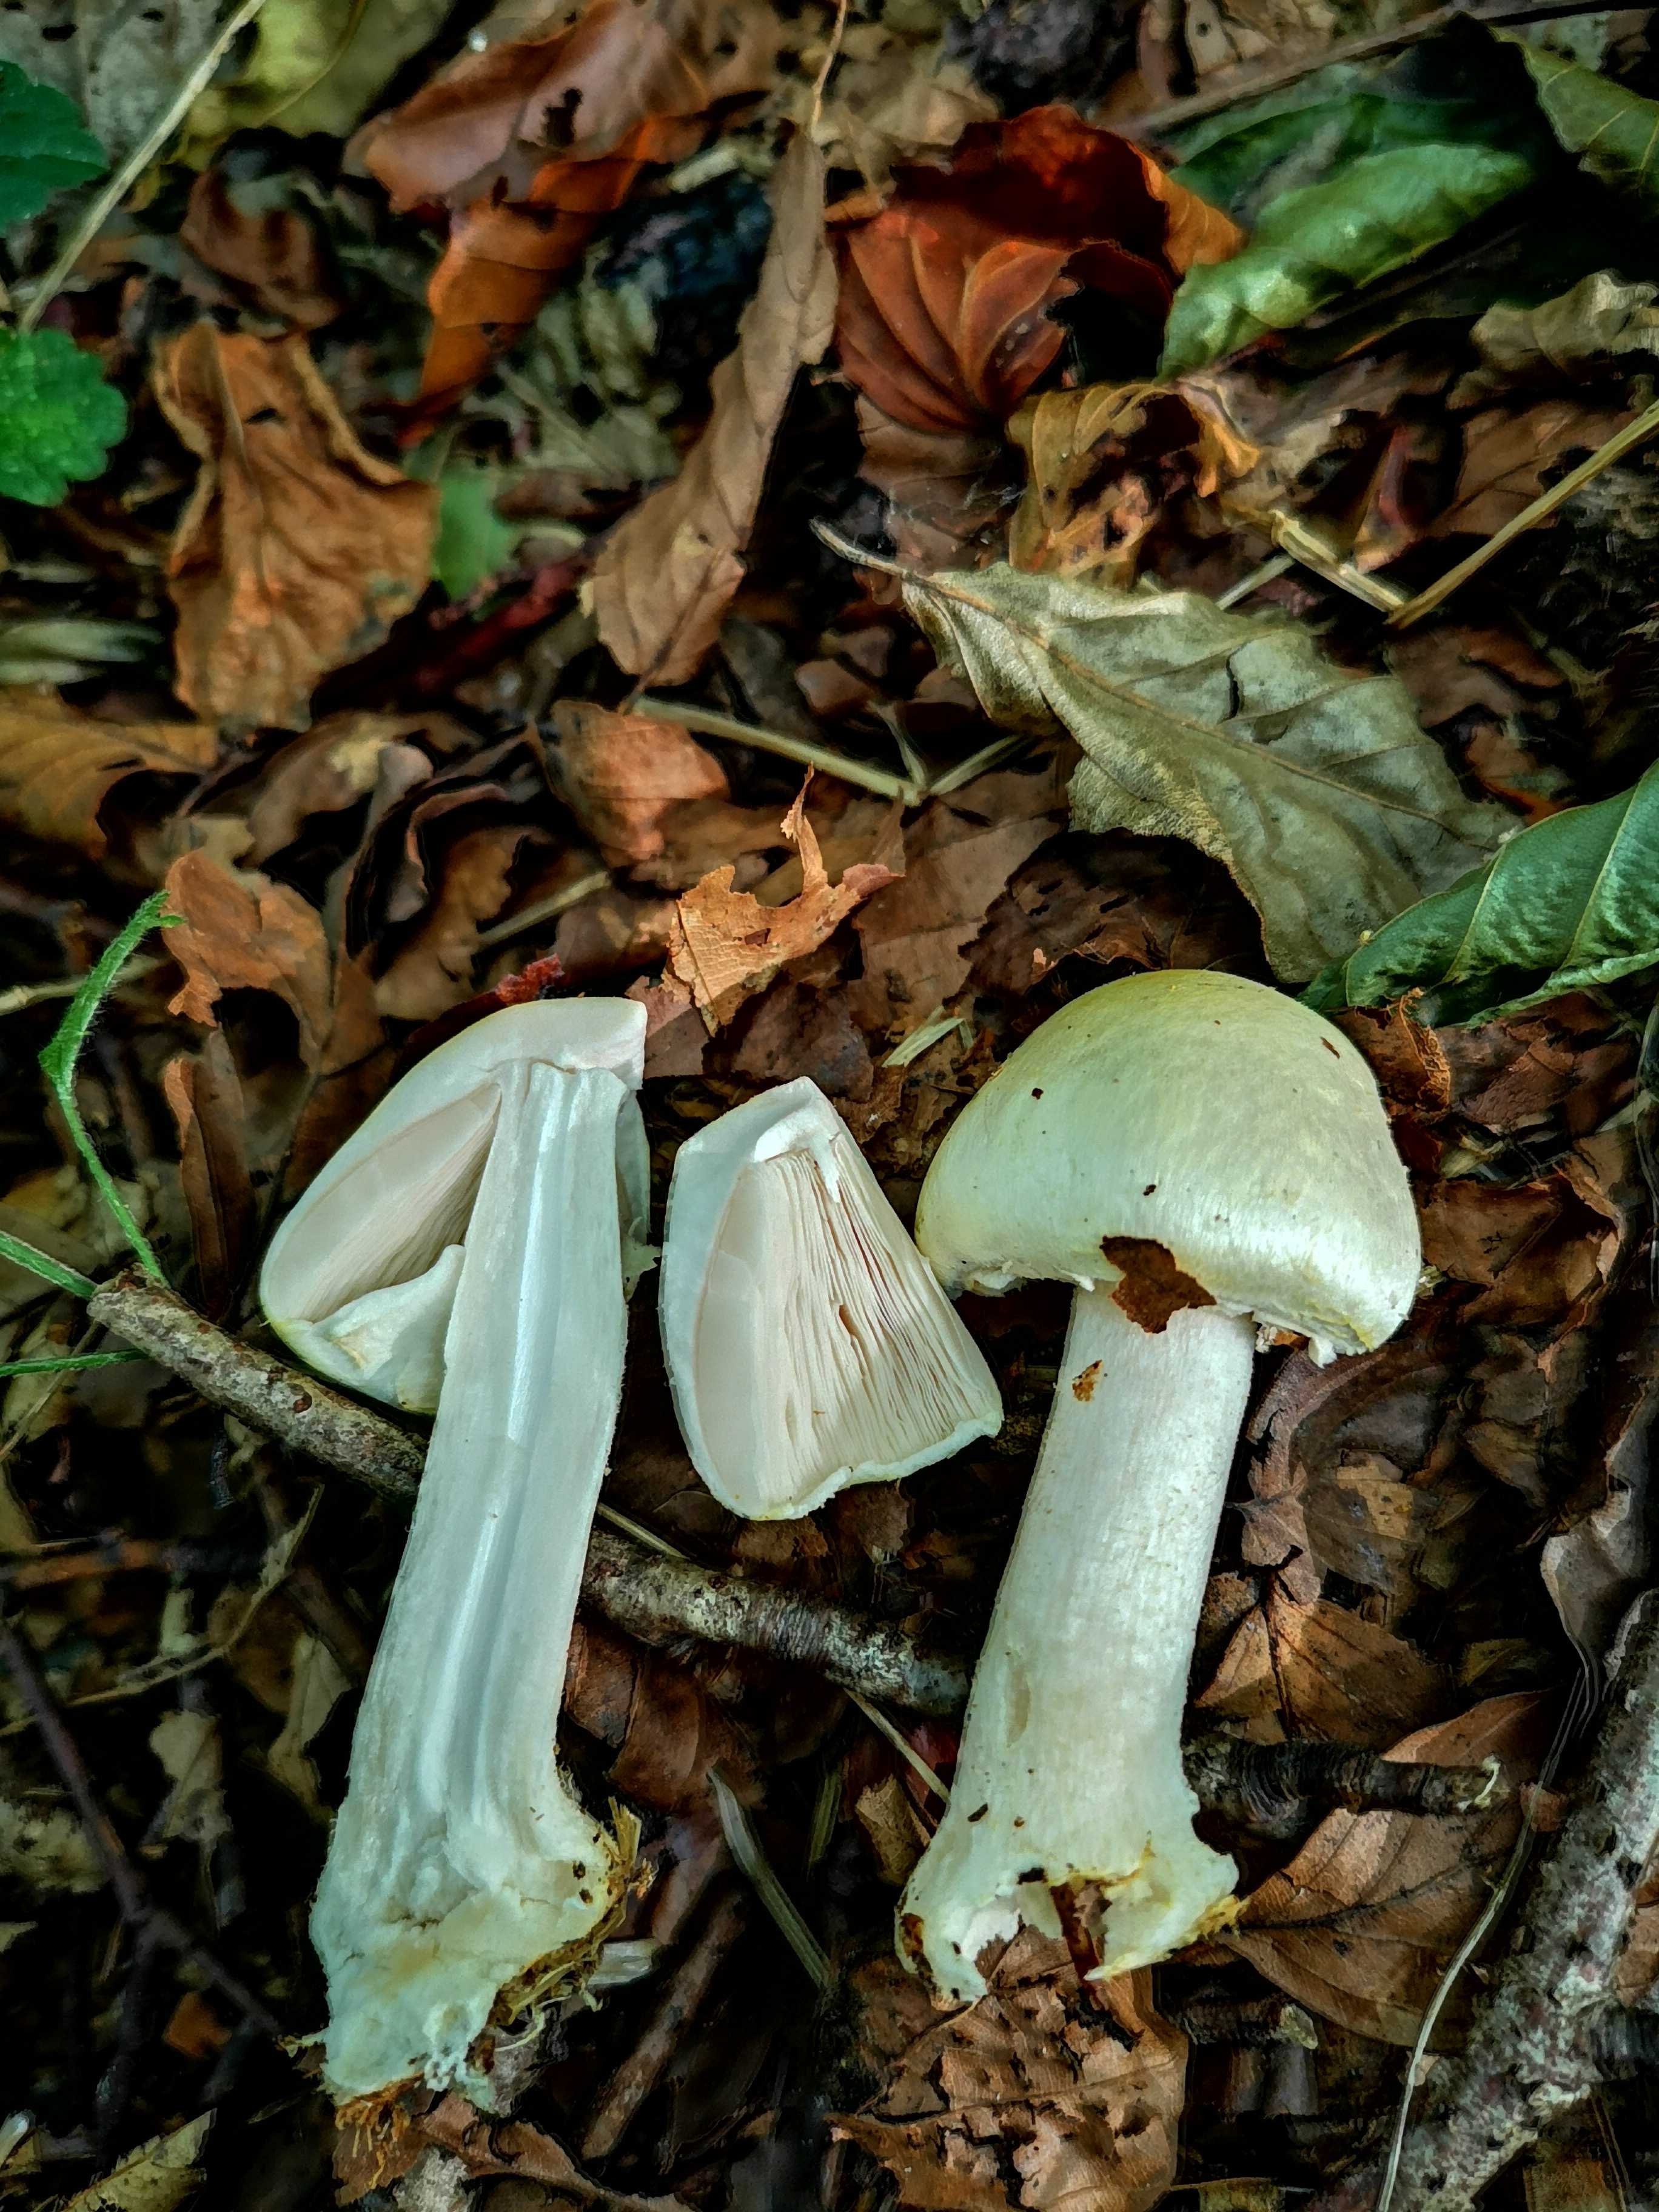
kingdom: Fungi
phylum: Basidiomycota
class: Agaricomycetes
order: Agaricales
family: Agaricaceae
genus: Agaricus
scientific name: Agaricus
